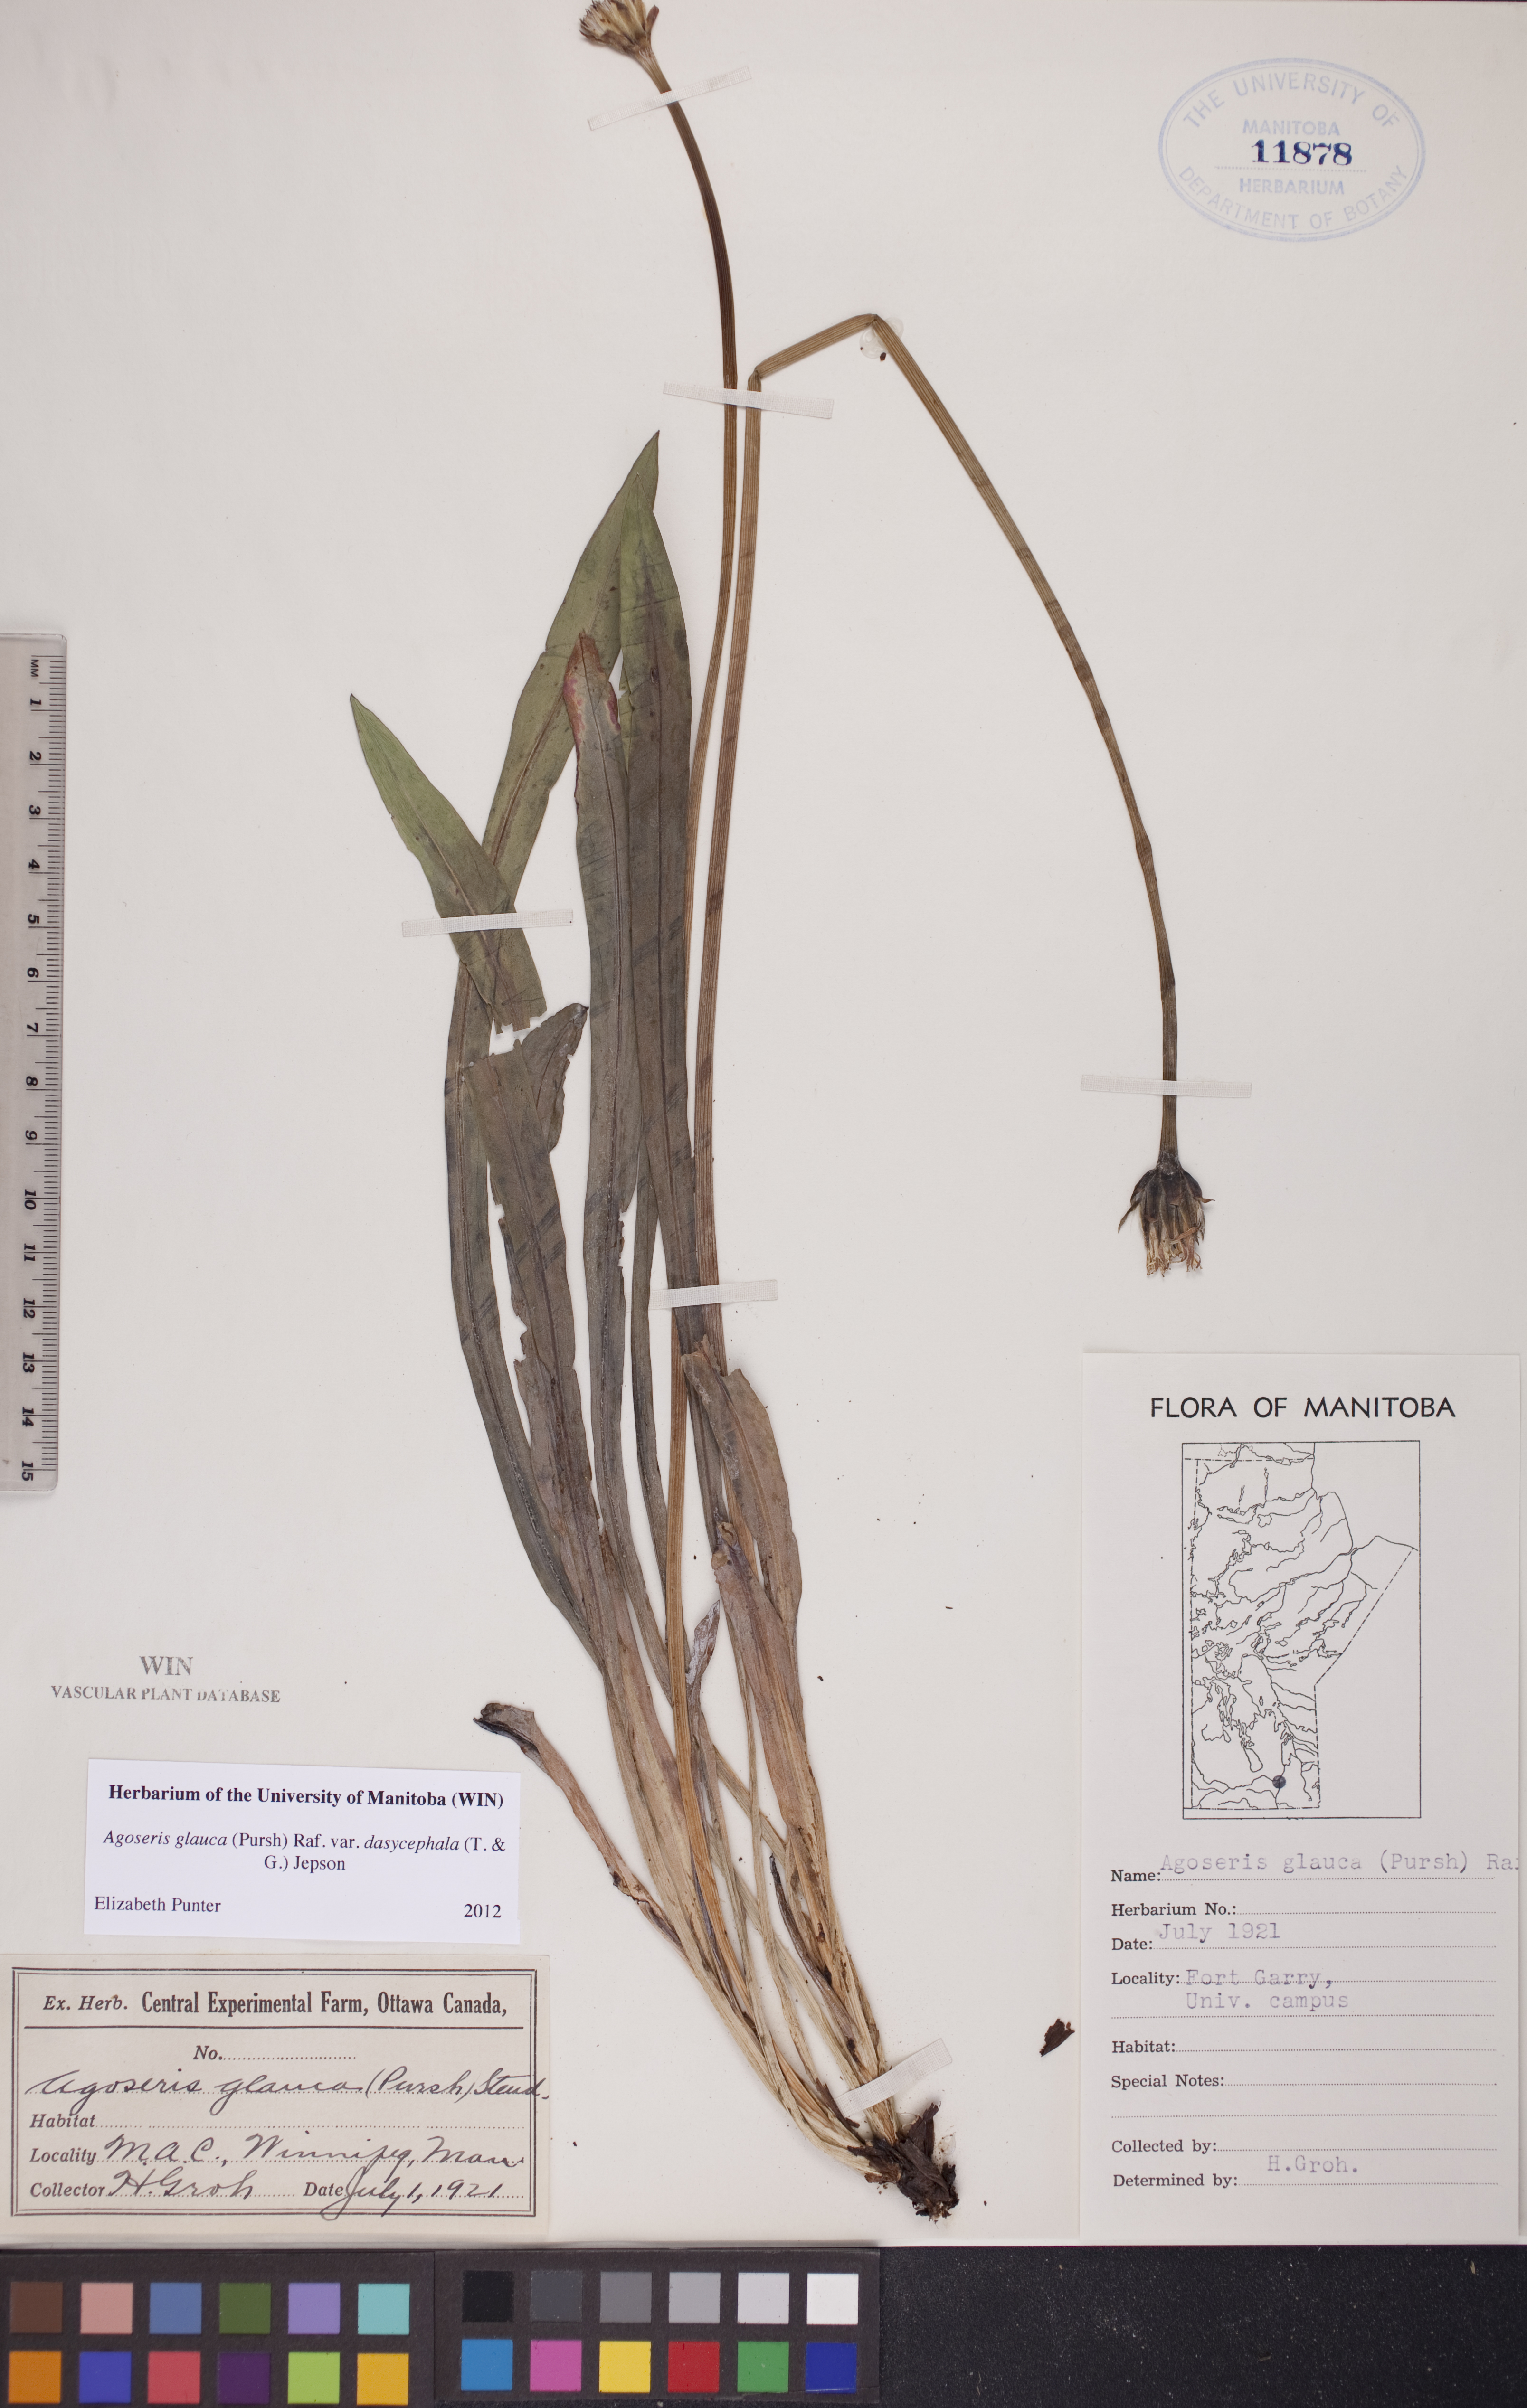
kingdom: Plantae
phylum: Tracheophyta
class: Magnoliopsida
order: Asterales
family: Asteraceae
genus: Agoseris
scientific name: Agoseris glauca
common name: Prairie agoseris
